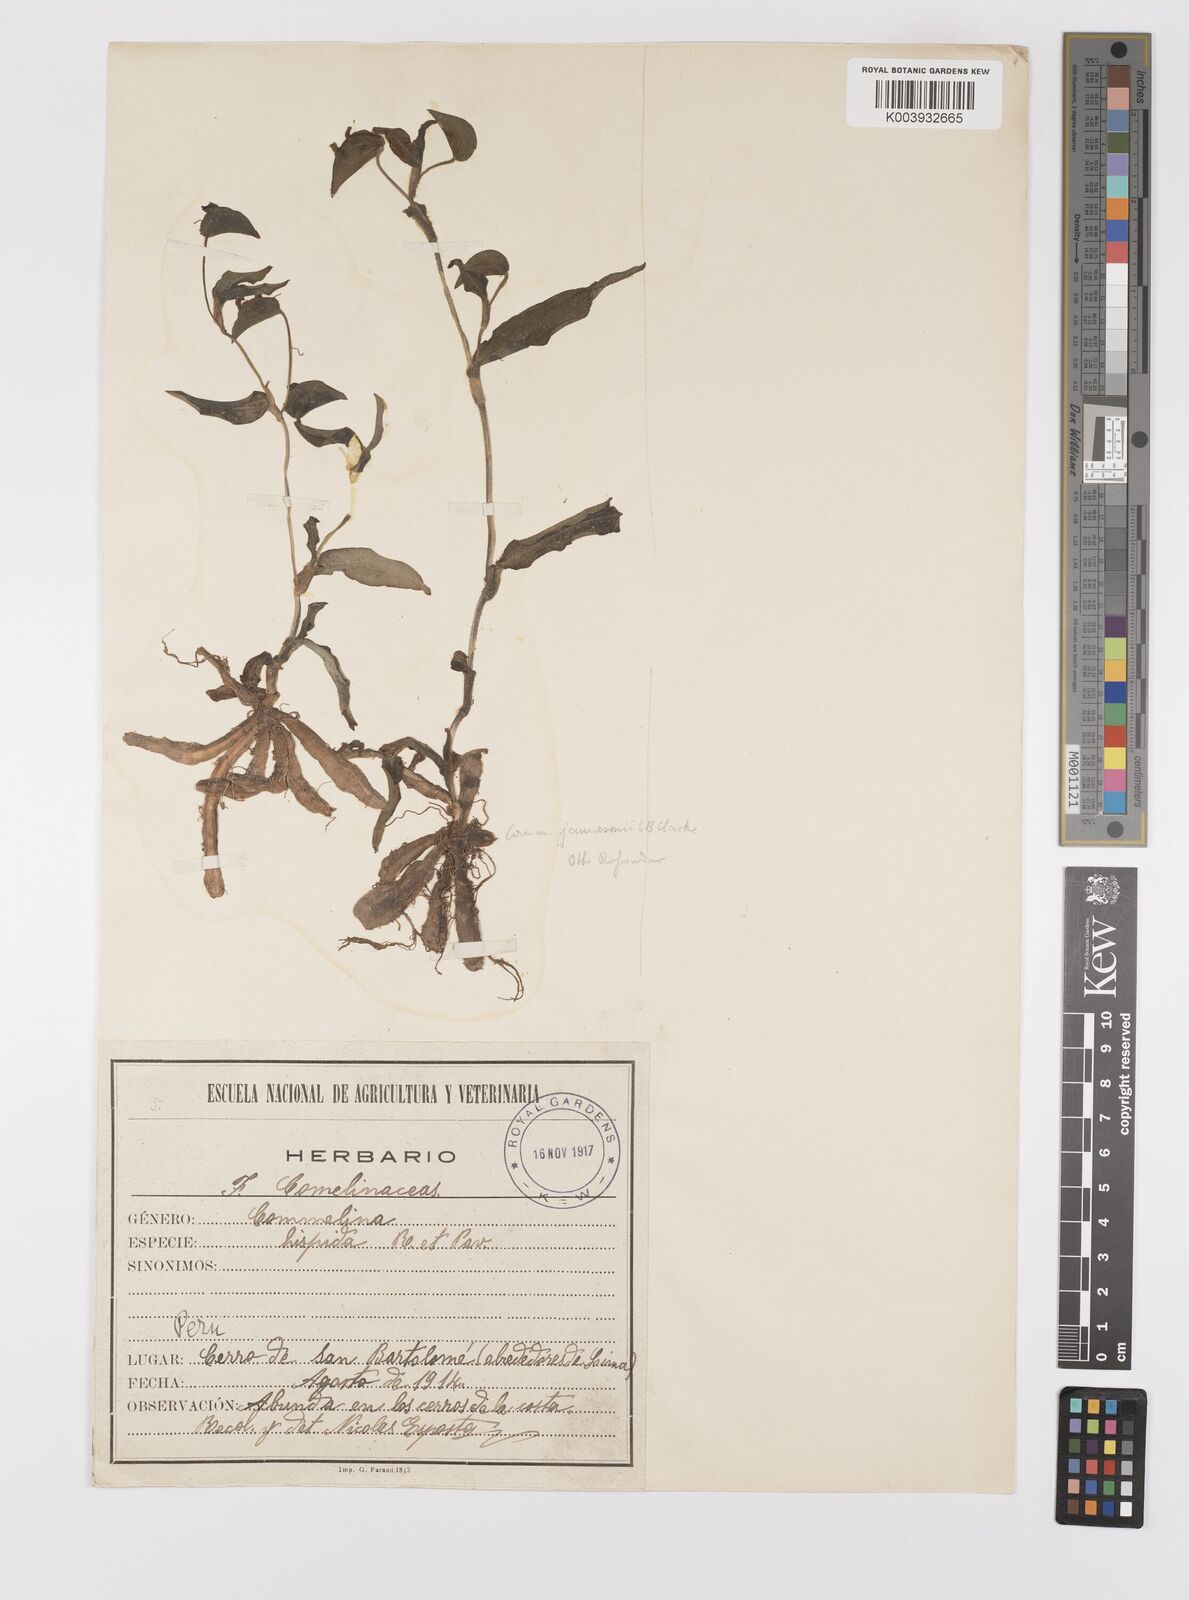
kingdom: Plantae
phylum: Tracheophyta
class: Liliopsida
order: Commelinales
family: Commelinaceae
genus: Commelina
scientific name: Commelina jamesonii
